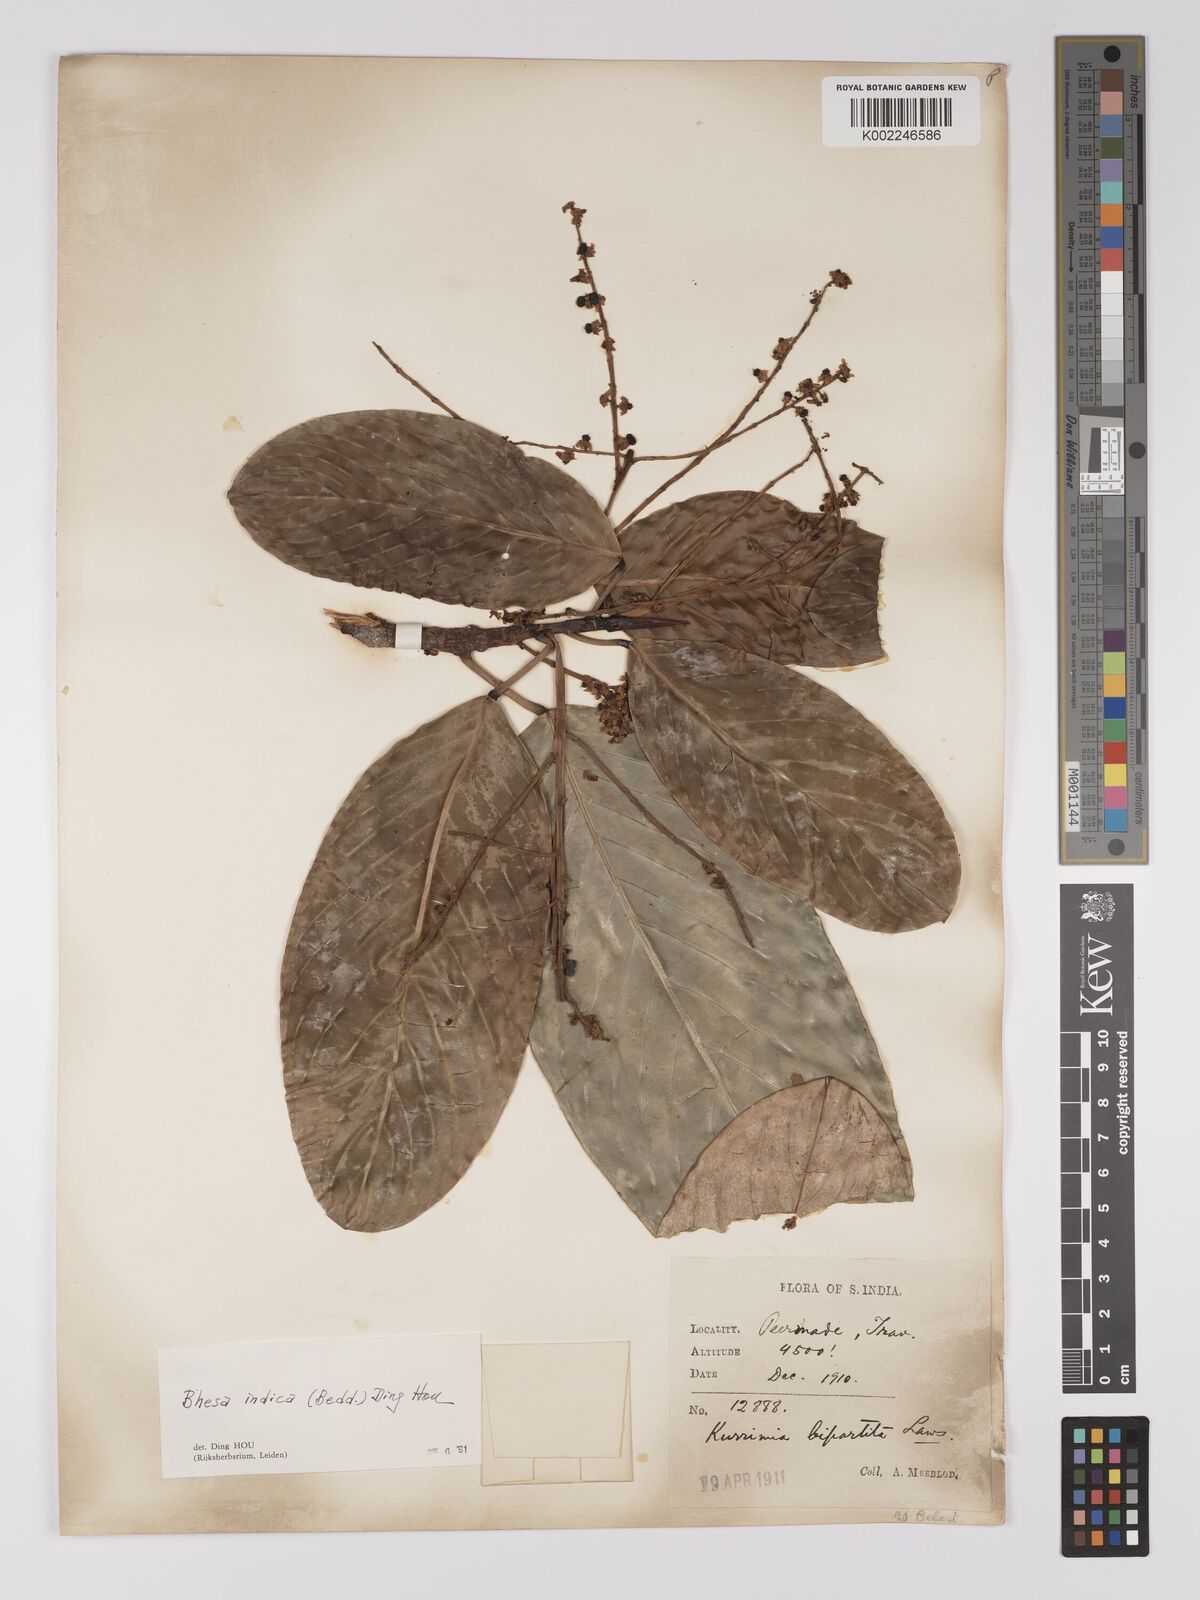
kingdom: Plantae
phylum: Tracheophyta
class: Magnoliopsida
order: Malpighiales
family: Centroplacaceae
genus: Bhesa
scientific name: Bhesa indica
